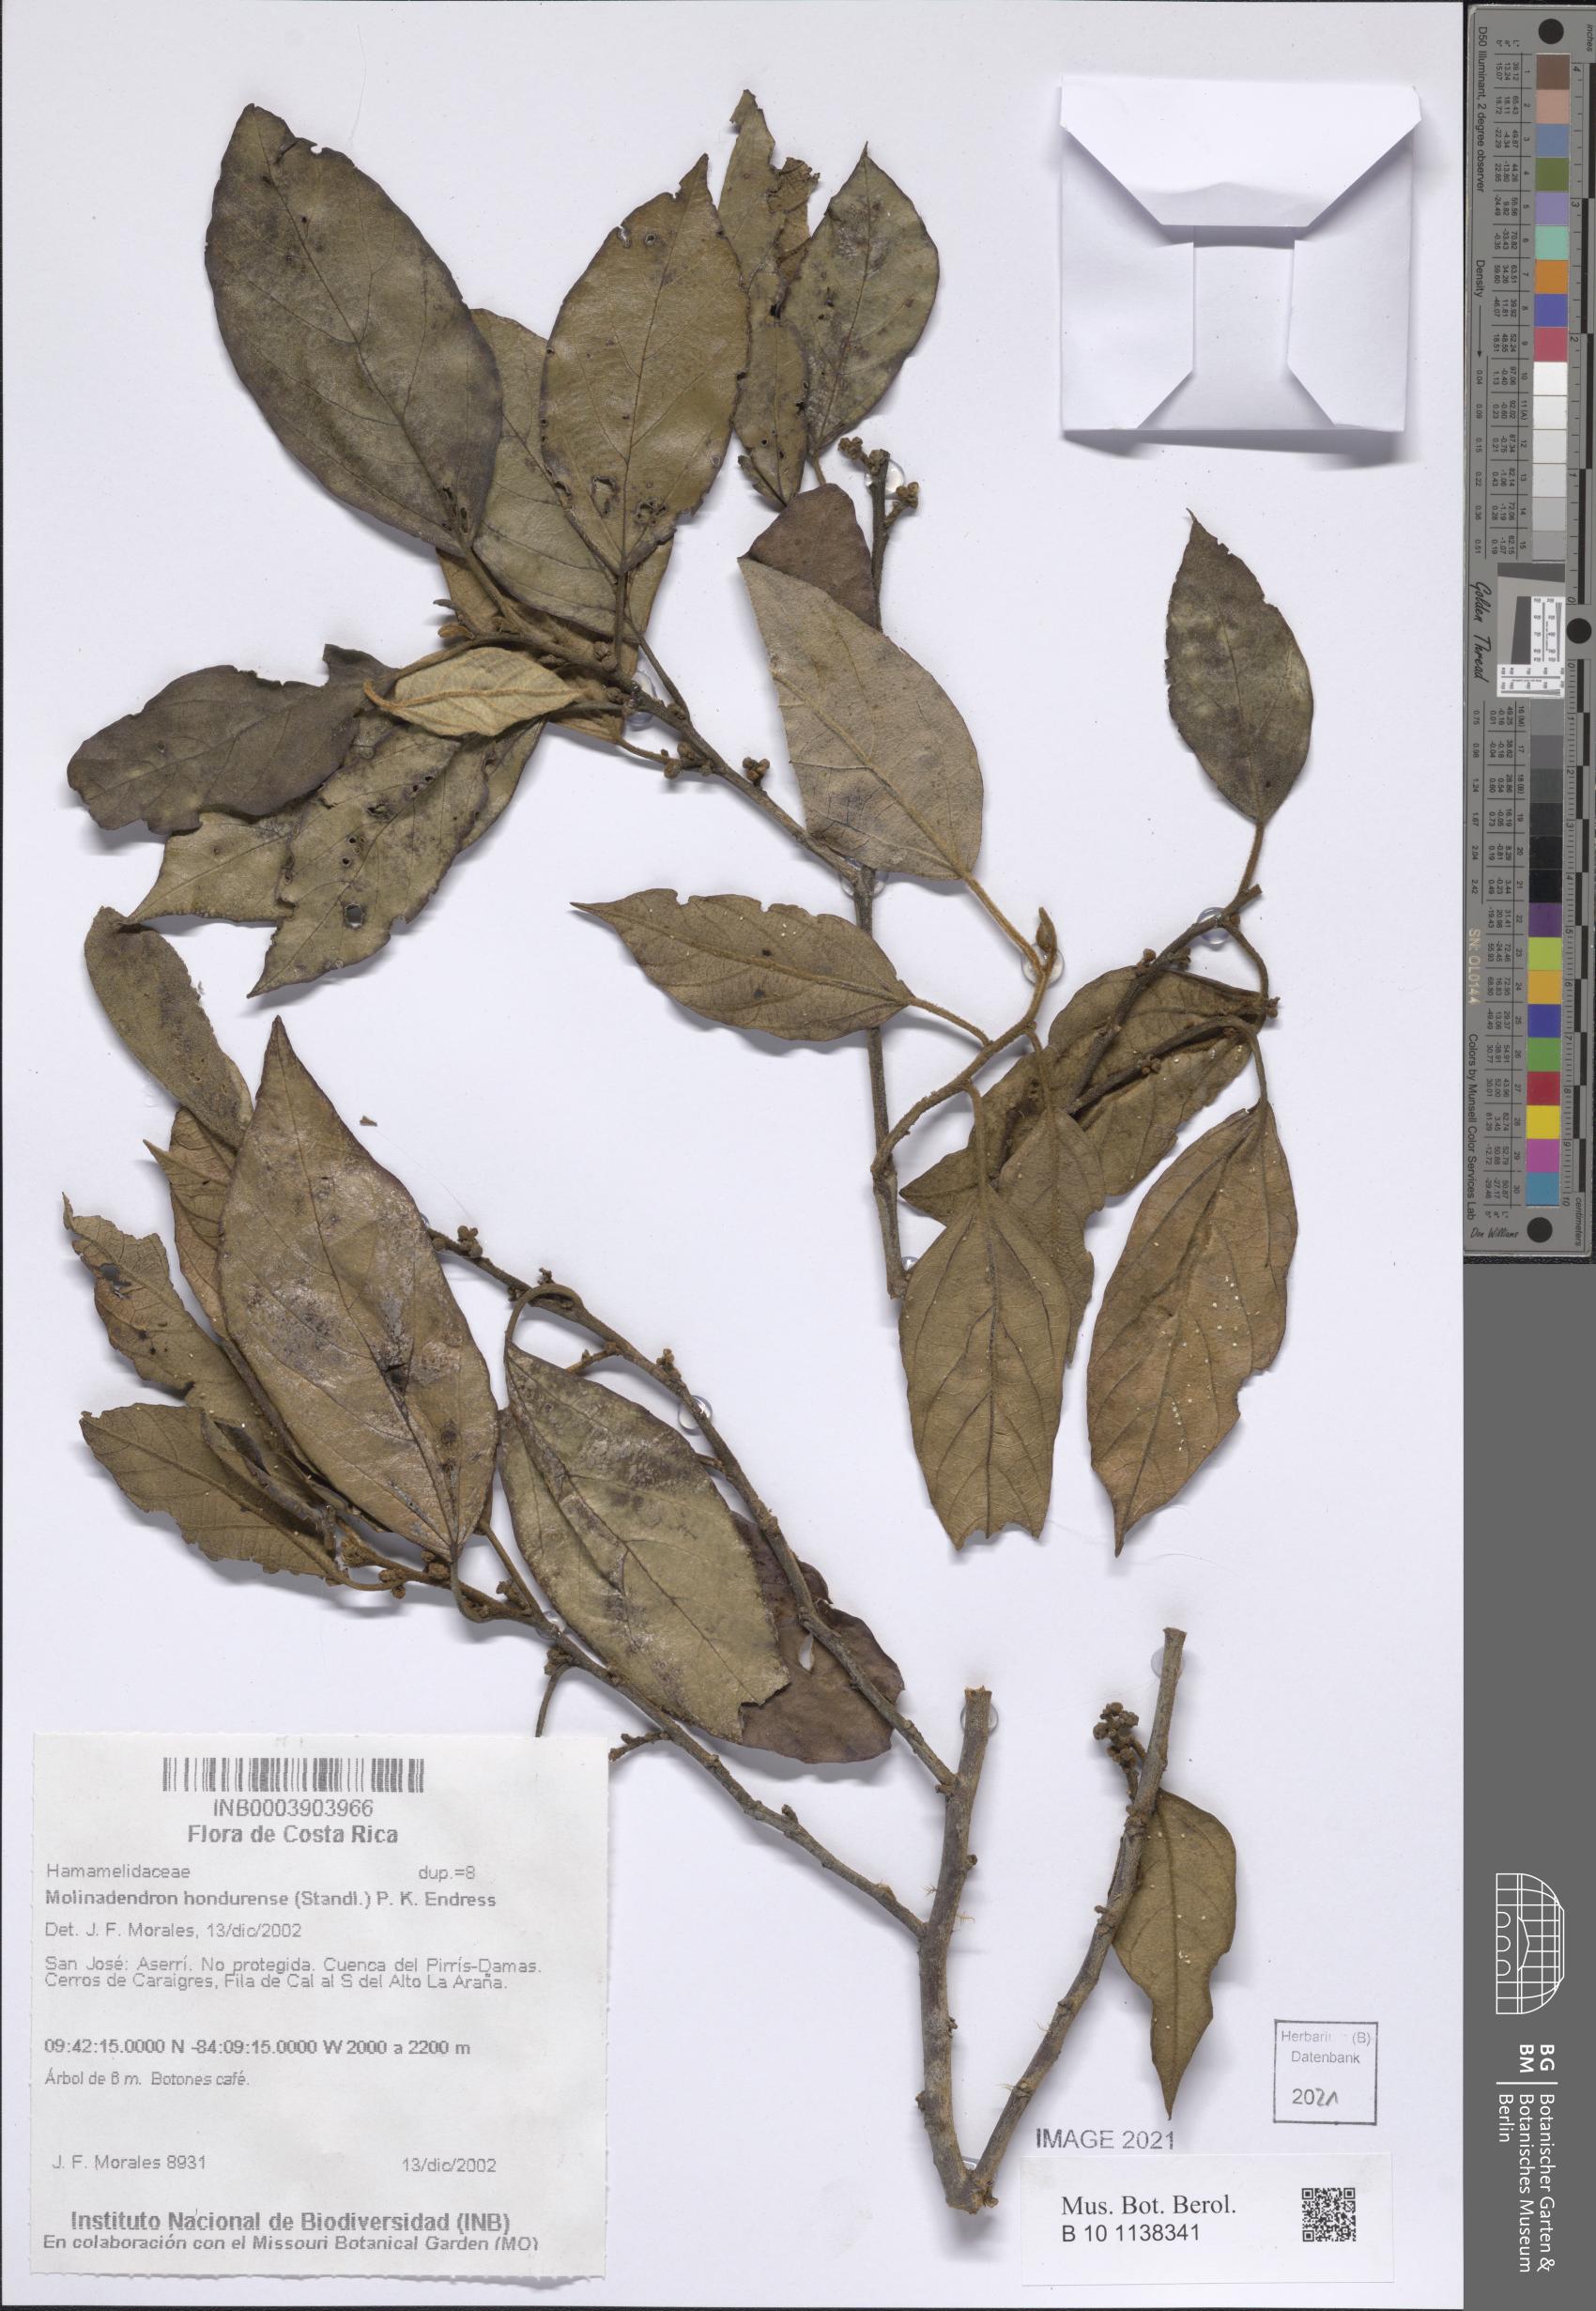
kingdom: Plantae
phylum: Tracheophyta
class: Magnoliopsida
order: Saxifragales
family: Hamamelidaceae
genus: Molinadendron
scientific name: Molinadendron guatemalense
